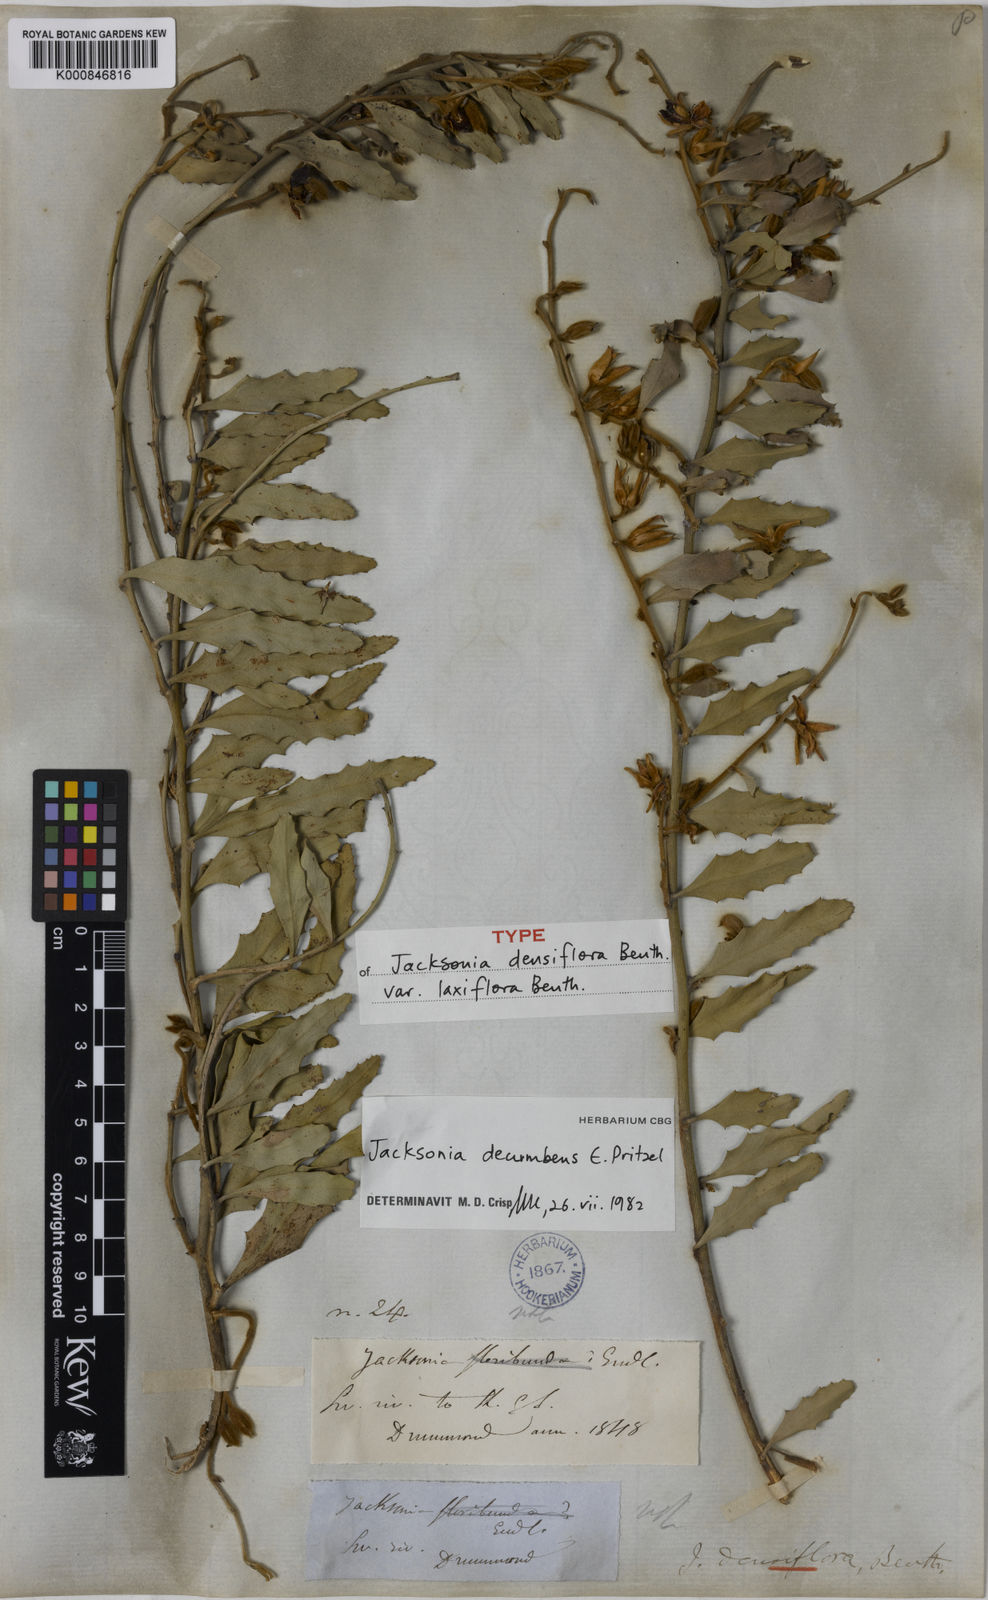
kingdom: Plantae
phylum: Tracheophyta
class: Magnoliopsida
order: Fabales
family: Fabaceae
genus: Jacksonia
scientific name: Jacksonia floribunda
